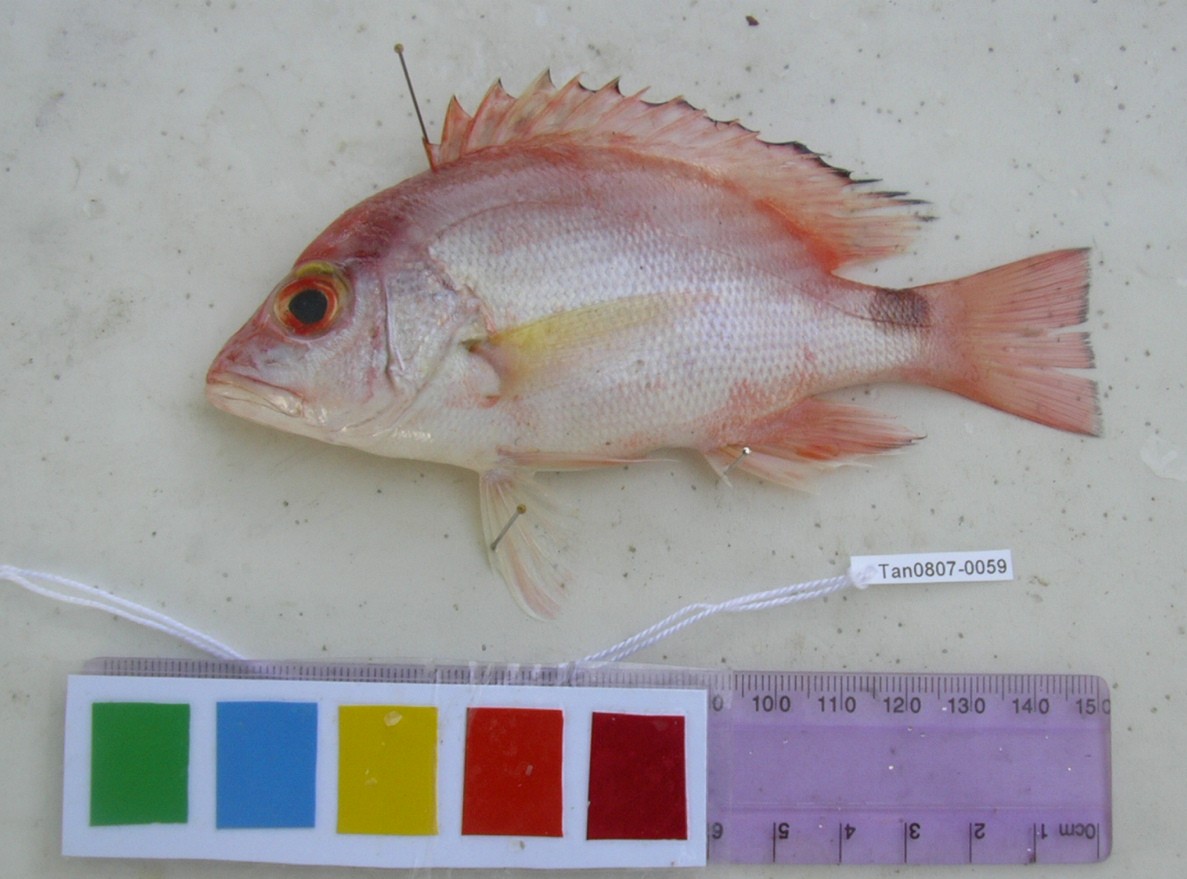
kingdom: Animalia
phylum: Chordata
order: Perciformes
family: Lutjanidae
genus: Lutjanus
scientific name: Lutjanus malabaricus
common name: Malabar snapper
